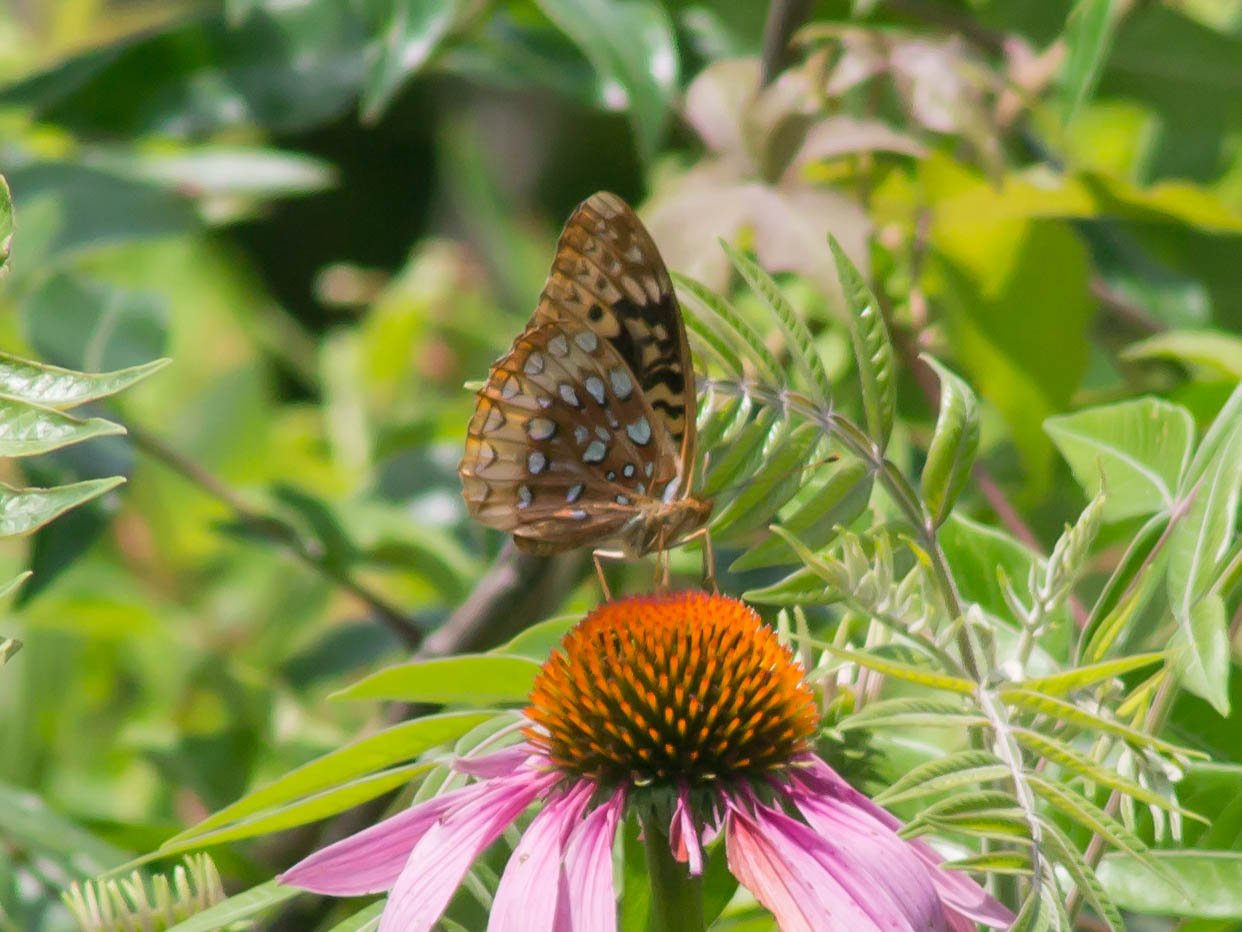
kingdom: Animalia
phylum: Arthropoda
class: Insecta
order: Lepidoptera
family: Nymphalidae
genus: Speyeria
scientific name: Speyeria cybele
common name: Great Spangled Fritillary
